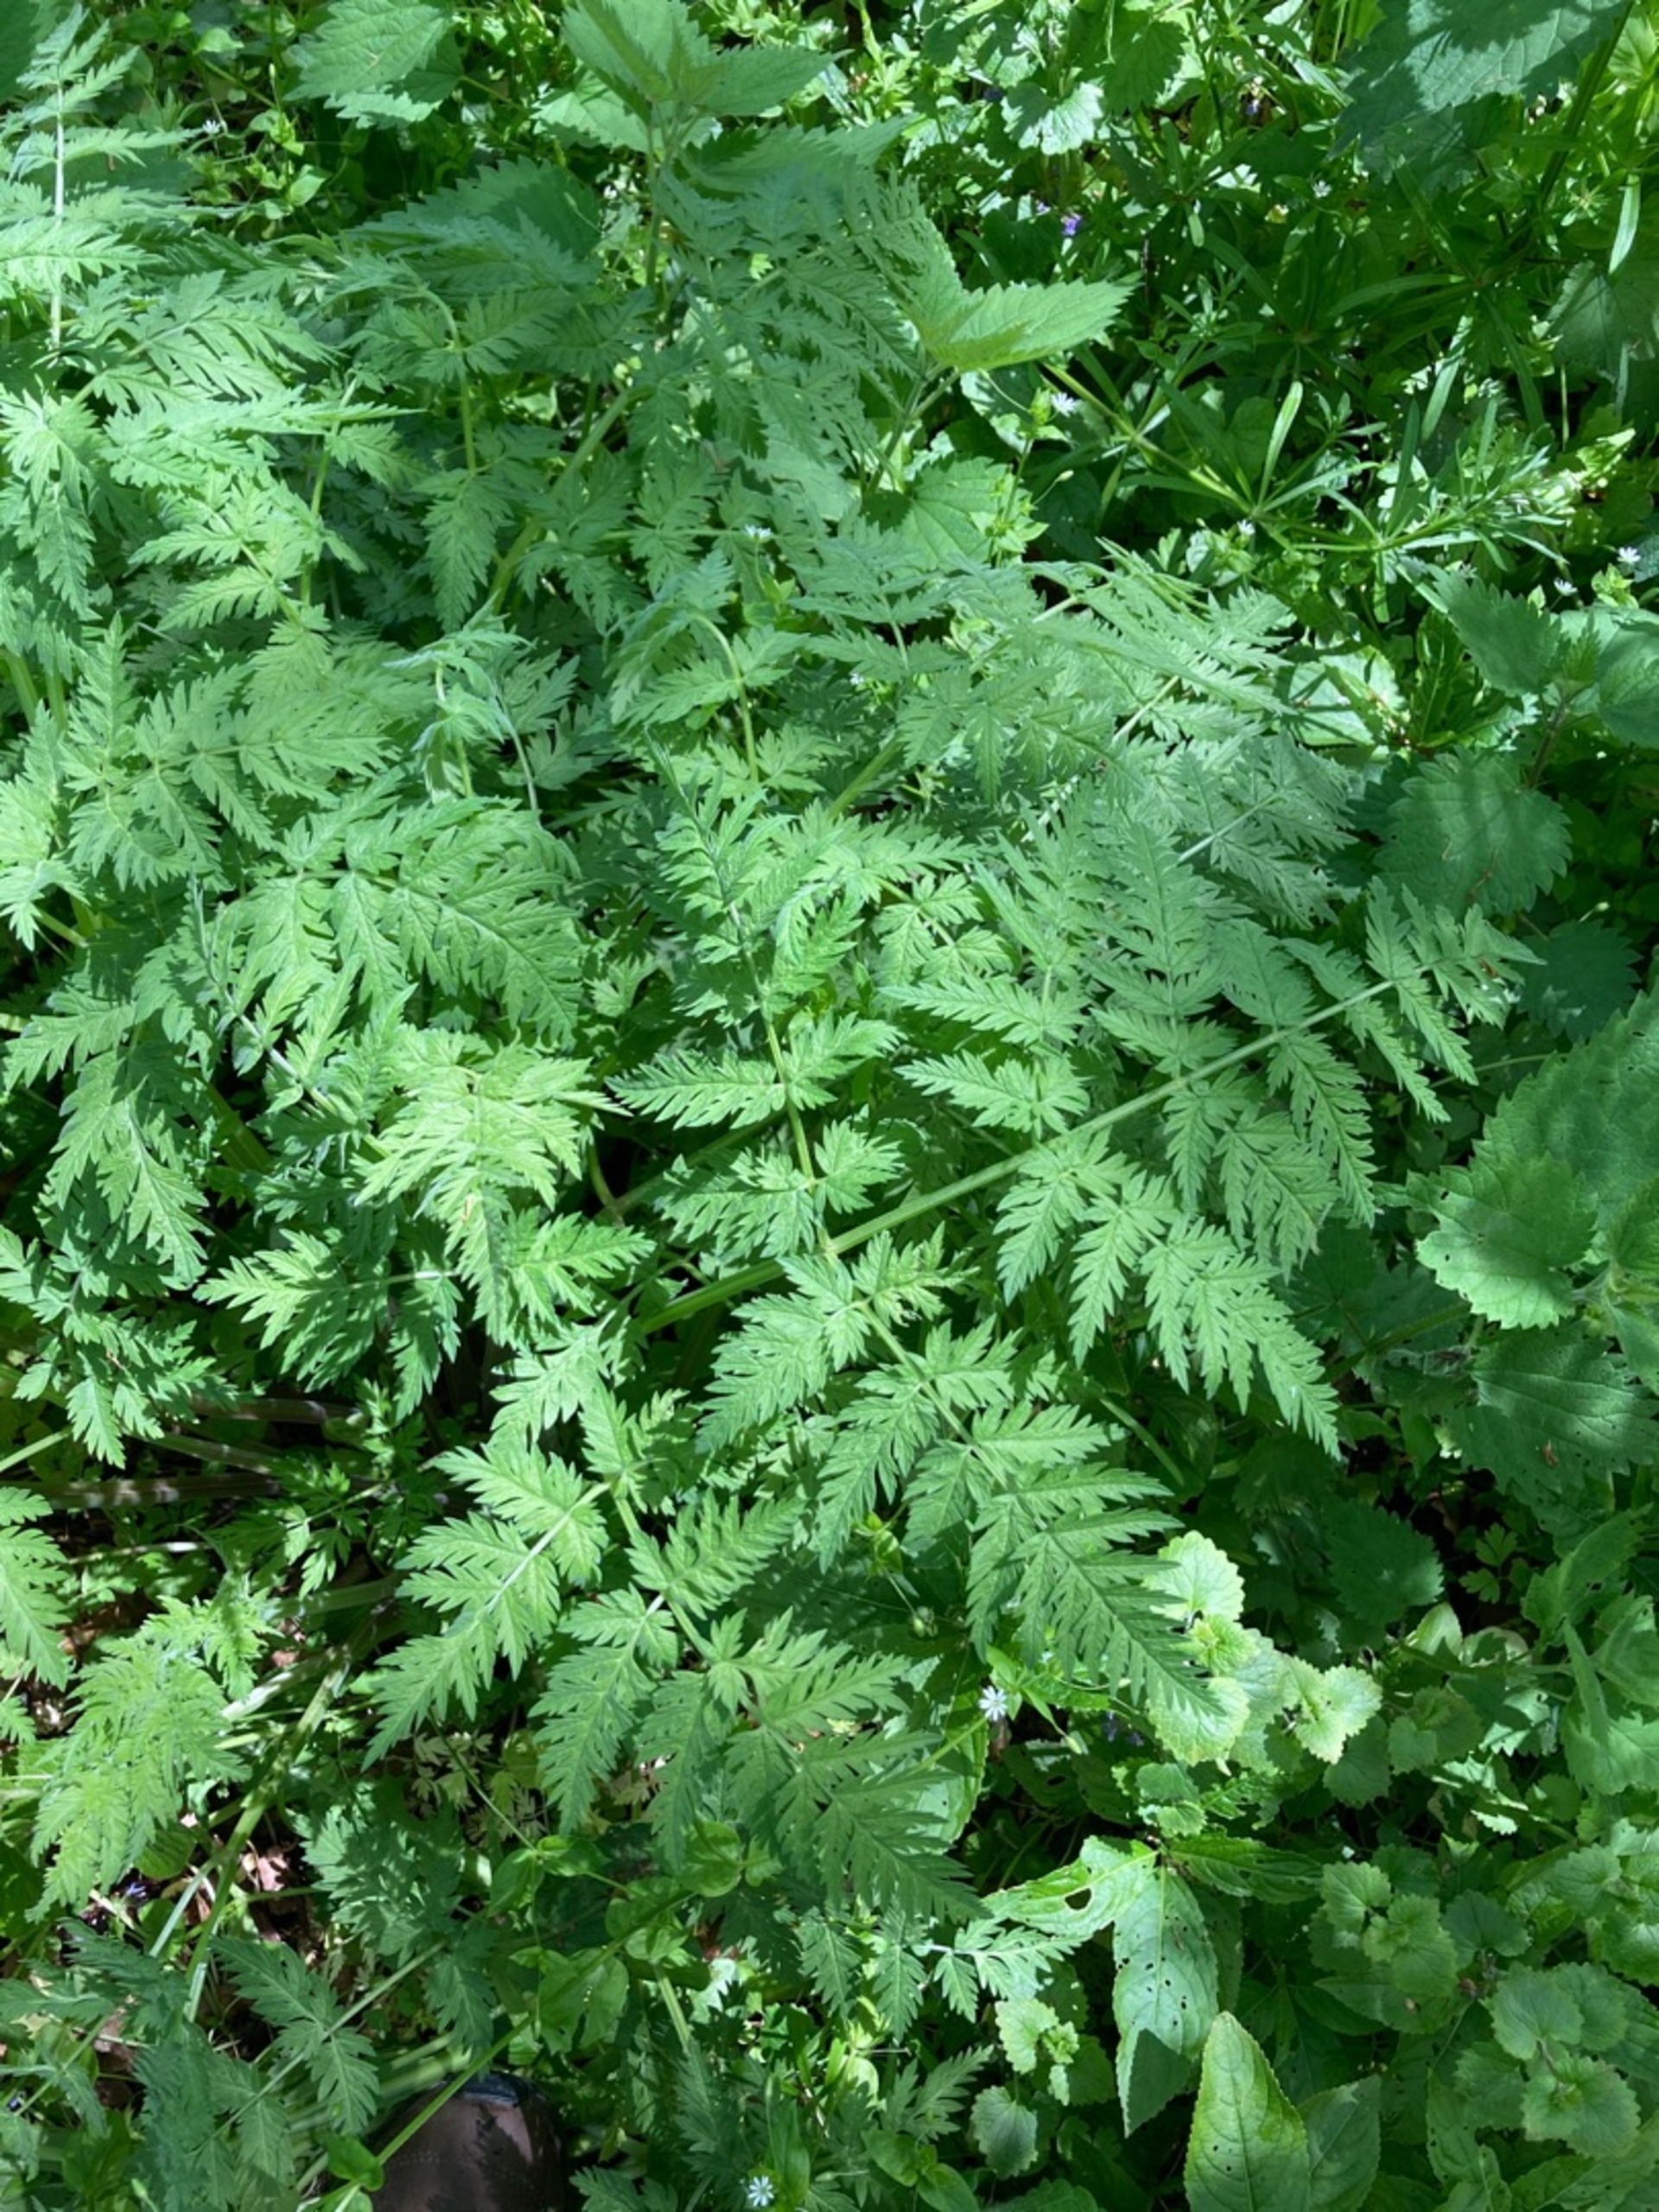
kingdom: Plantae
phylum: Tracheophyta
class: Magnoliopsida
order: Apiales
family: Apiaceae
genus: Anthriscus
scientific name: Anthriscus sylvestris
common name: Vild kørvel
